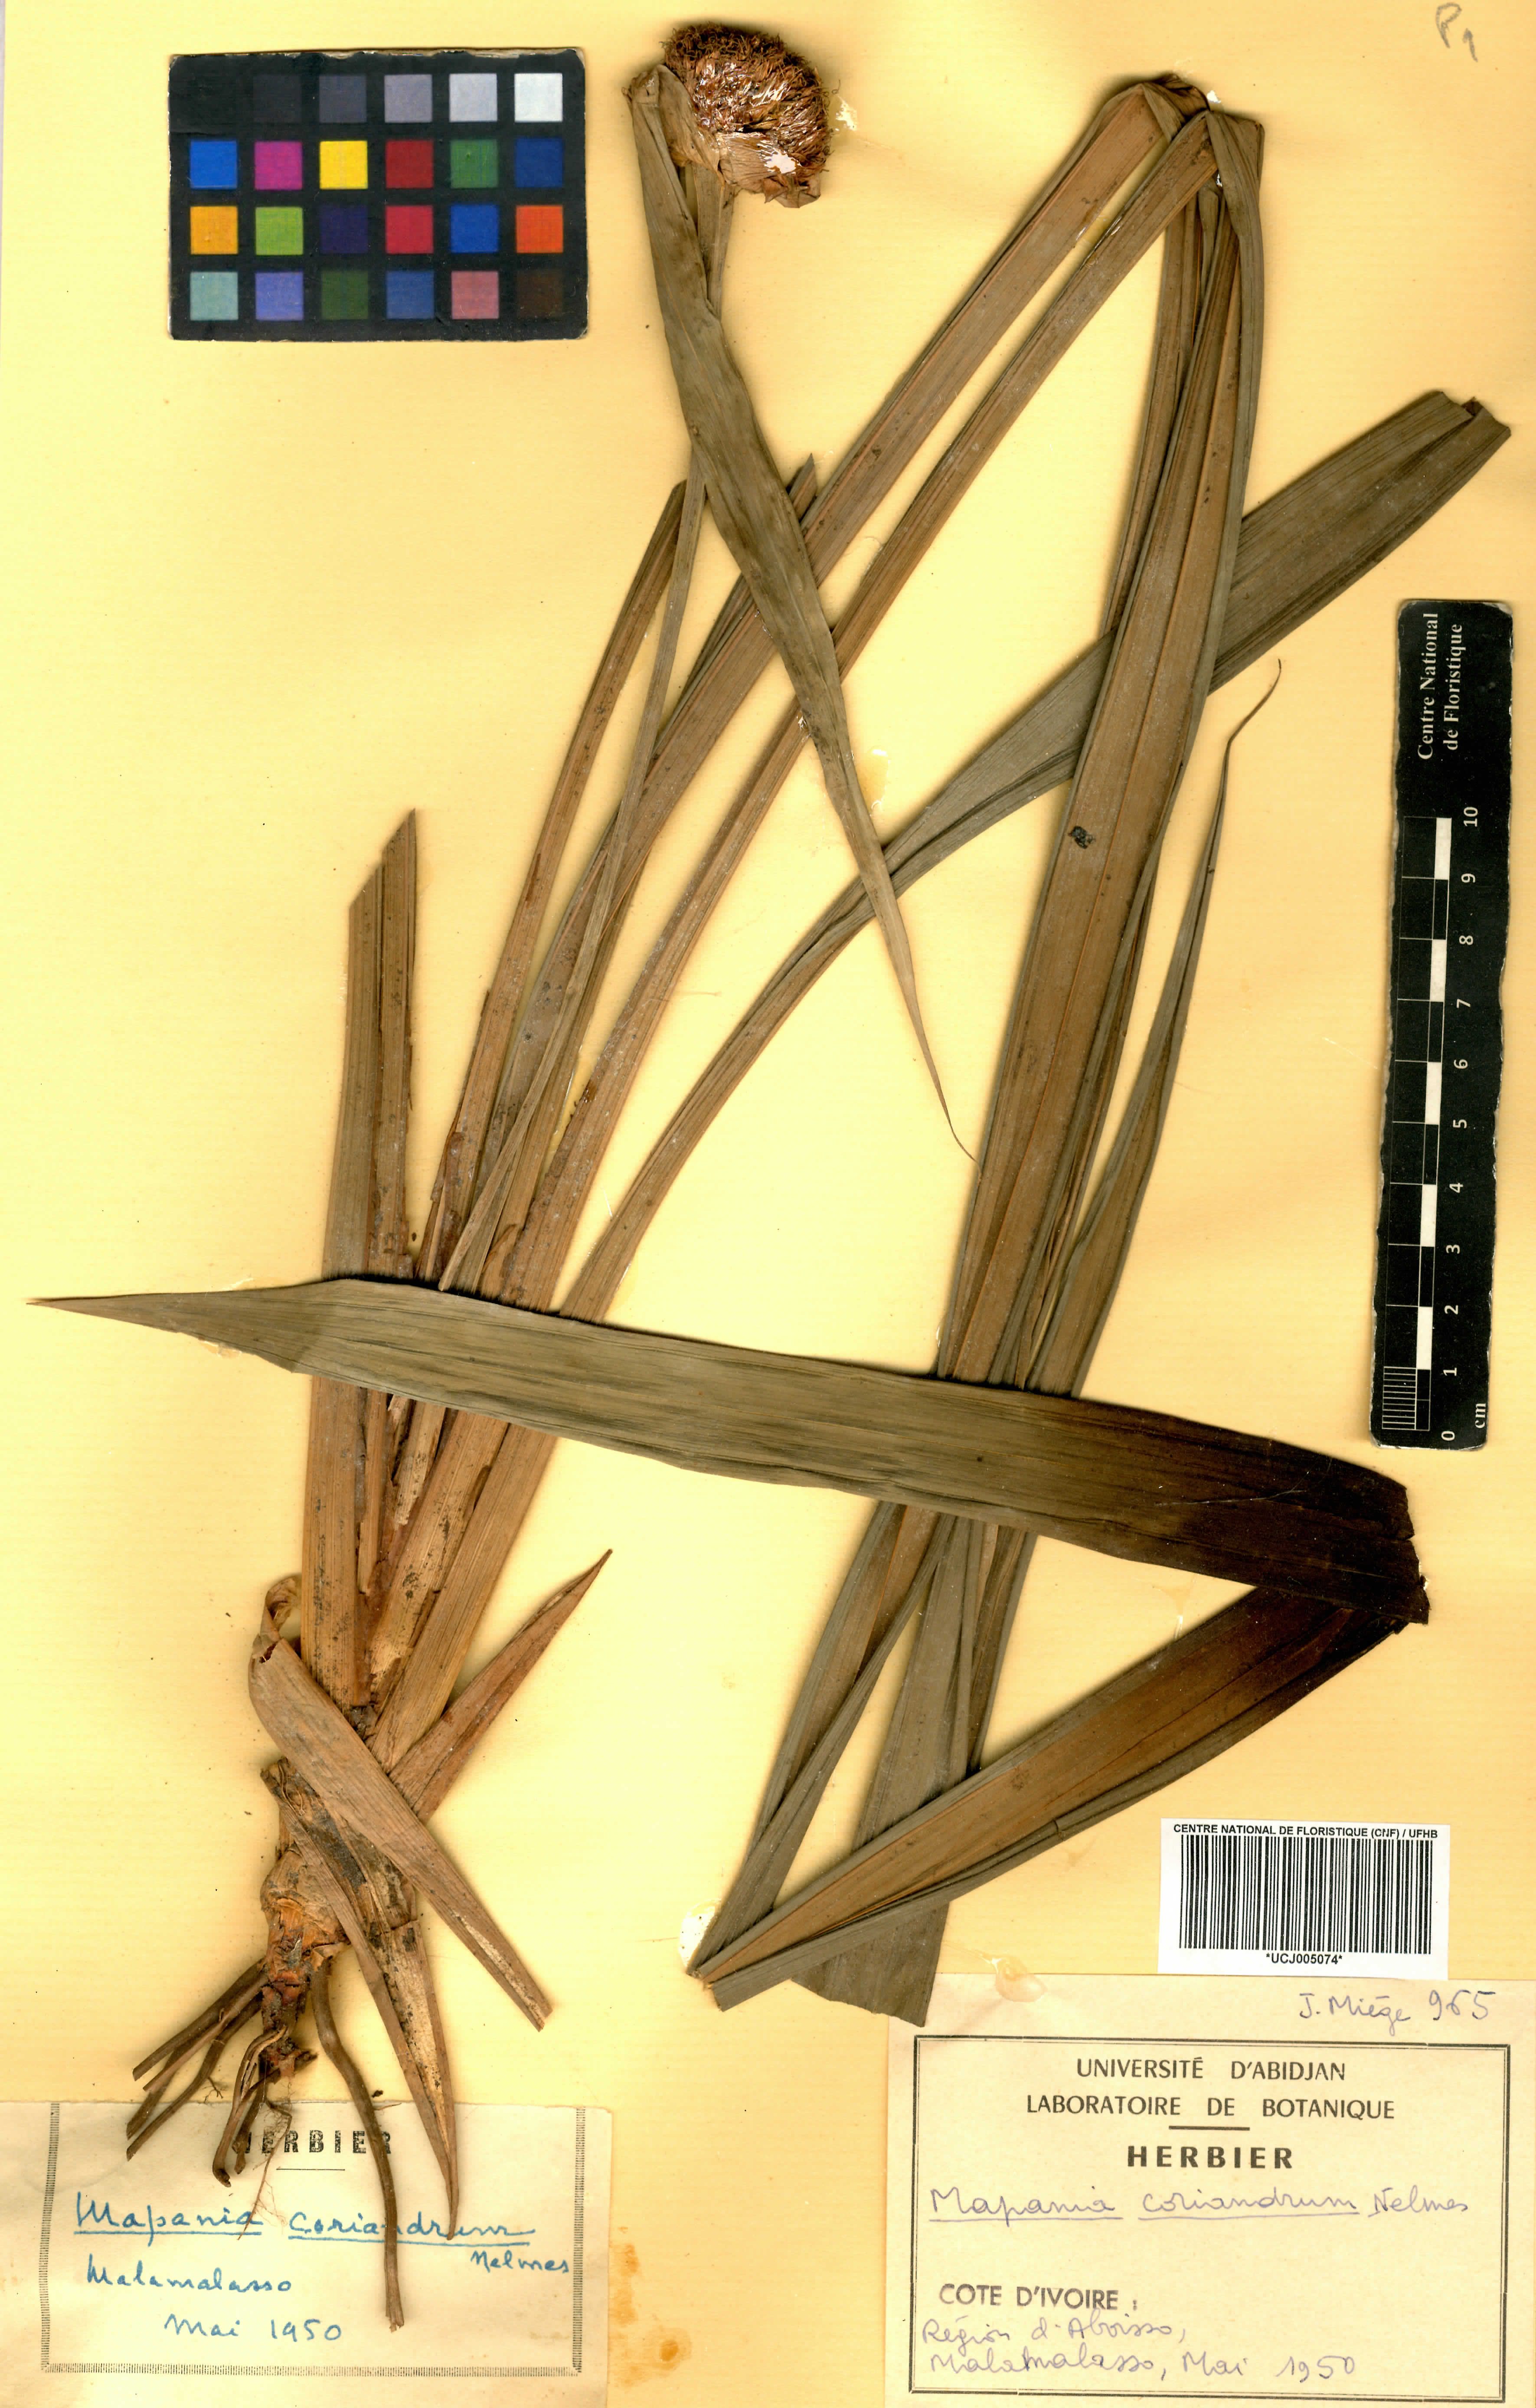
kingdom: Plantae
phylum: Tracheophyta
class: Liliopsida
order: Poales
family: Cyperaceae
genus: Mapania
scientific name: Mapania coriandrum
